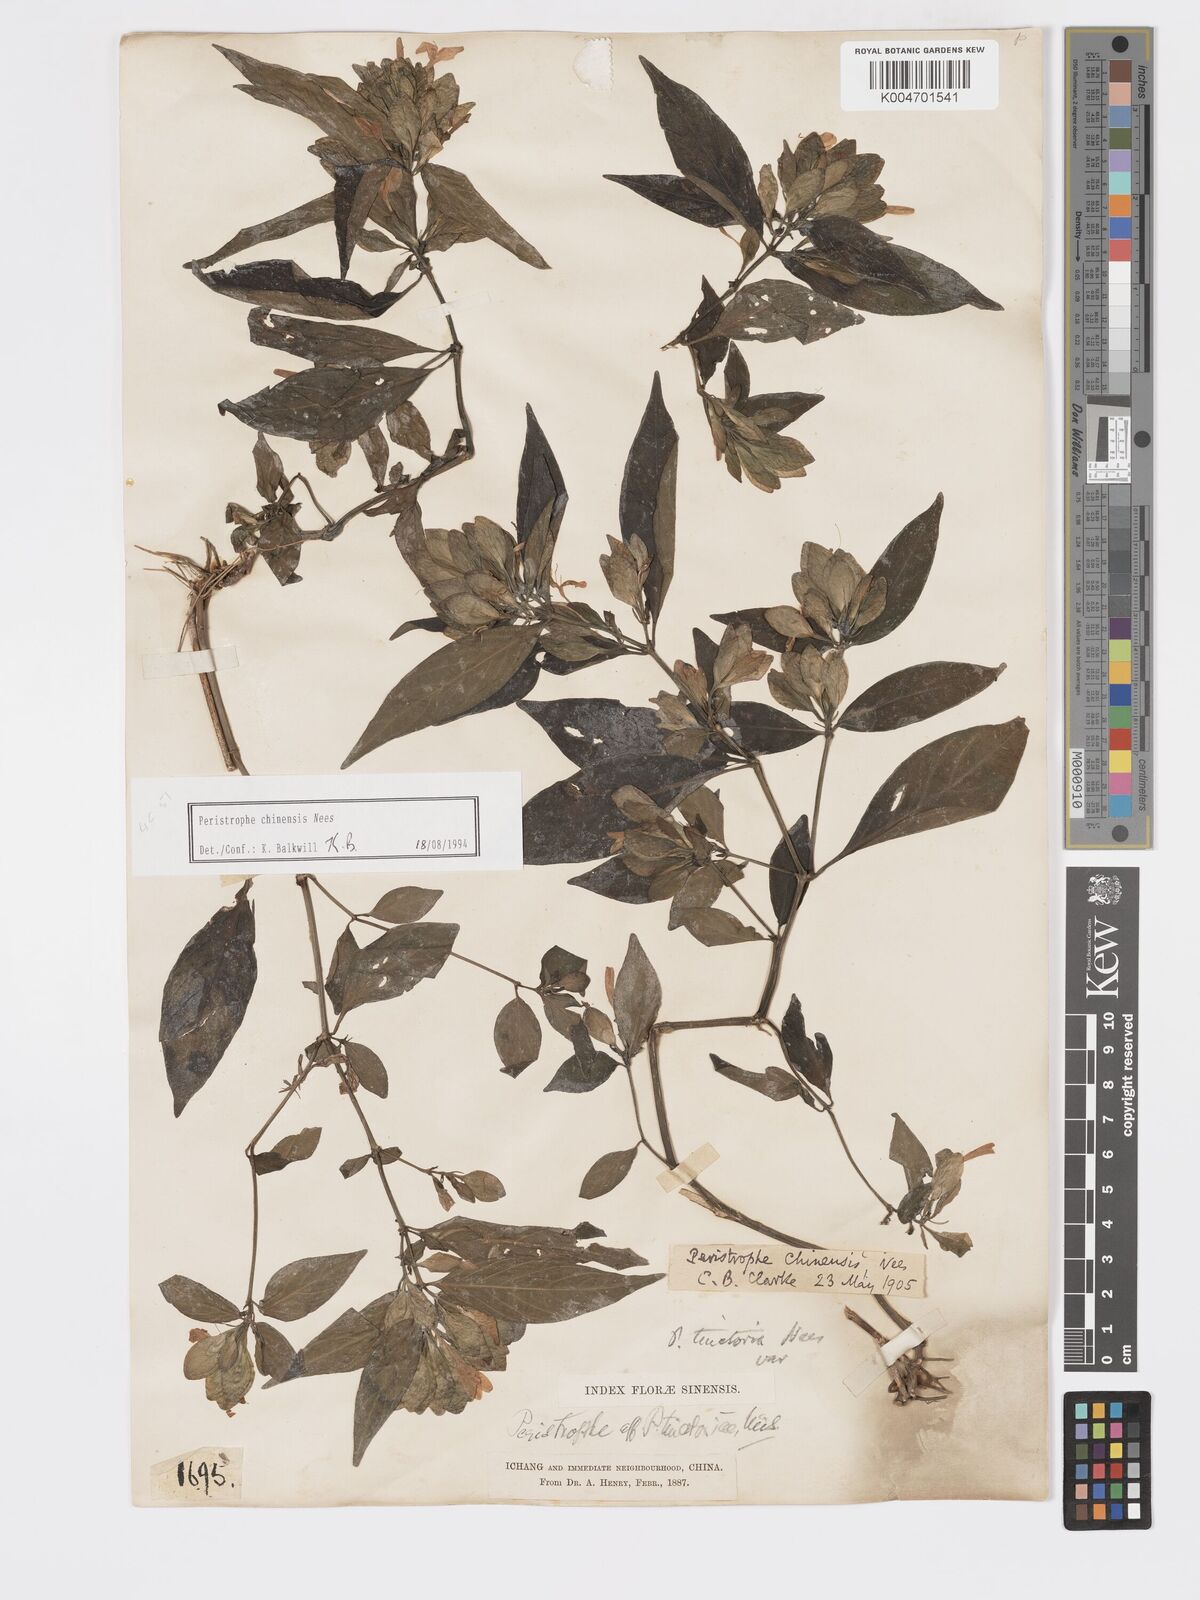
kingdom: Plantae
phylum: Tracheophyta
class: Magnoliopsida
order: Lamiales
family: Acanthaceae
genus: Dicliptera
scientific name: Dicliptera chinensis
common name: Chinese foldwing
